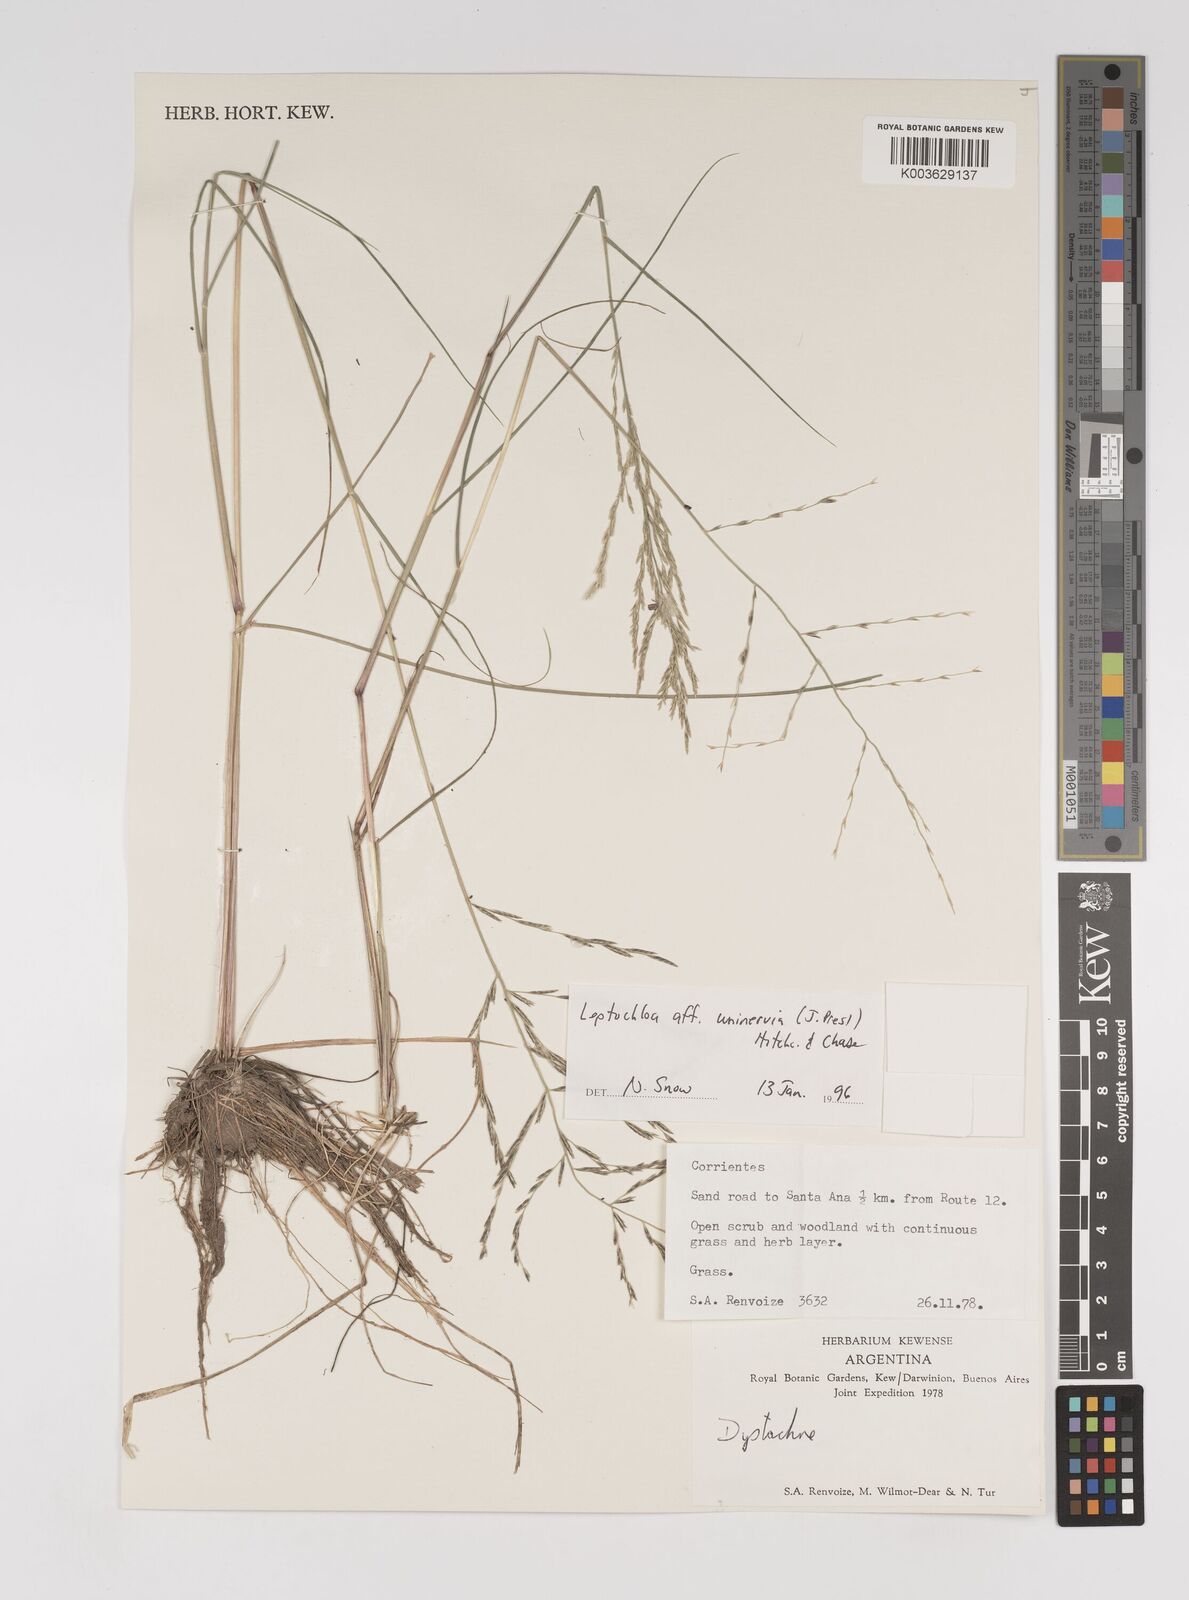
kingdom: Plantae
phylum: Tracheophyta
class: Liliopsida
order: Poales
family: Poaceae
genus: Diplachne
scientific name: Diplachne fusca
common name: Brown beetle grass
